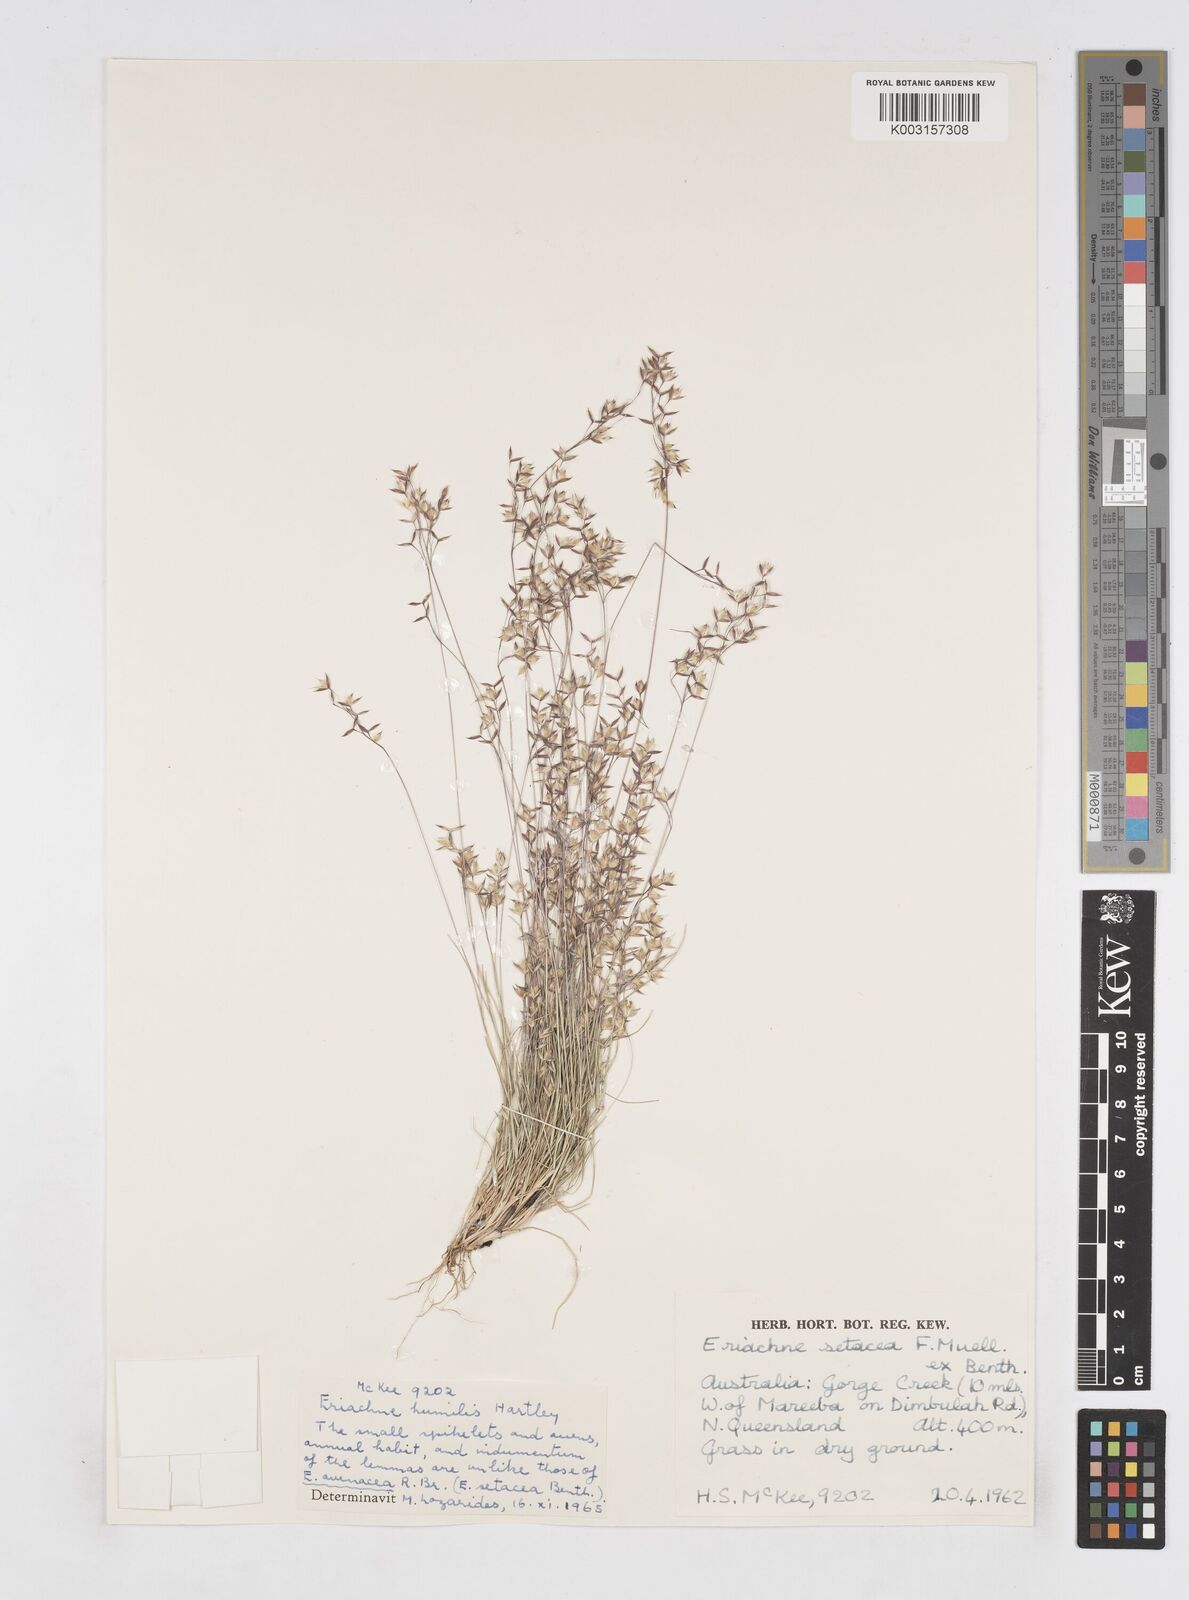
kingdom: Plantae
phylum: Tracheophyta
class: Liliopsida
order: Poales
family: Poaceae
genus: Eriachne
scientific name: Eriachne humilis
